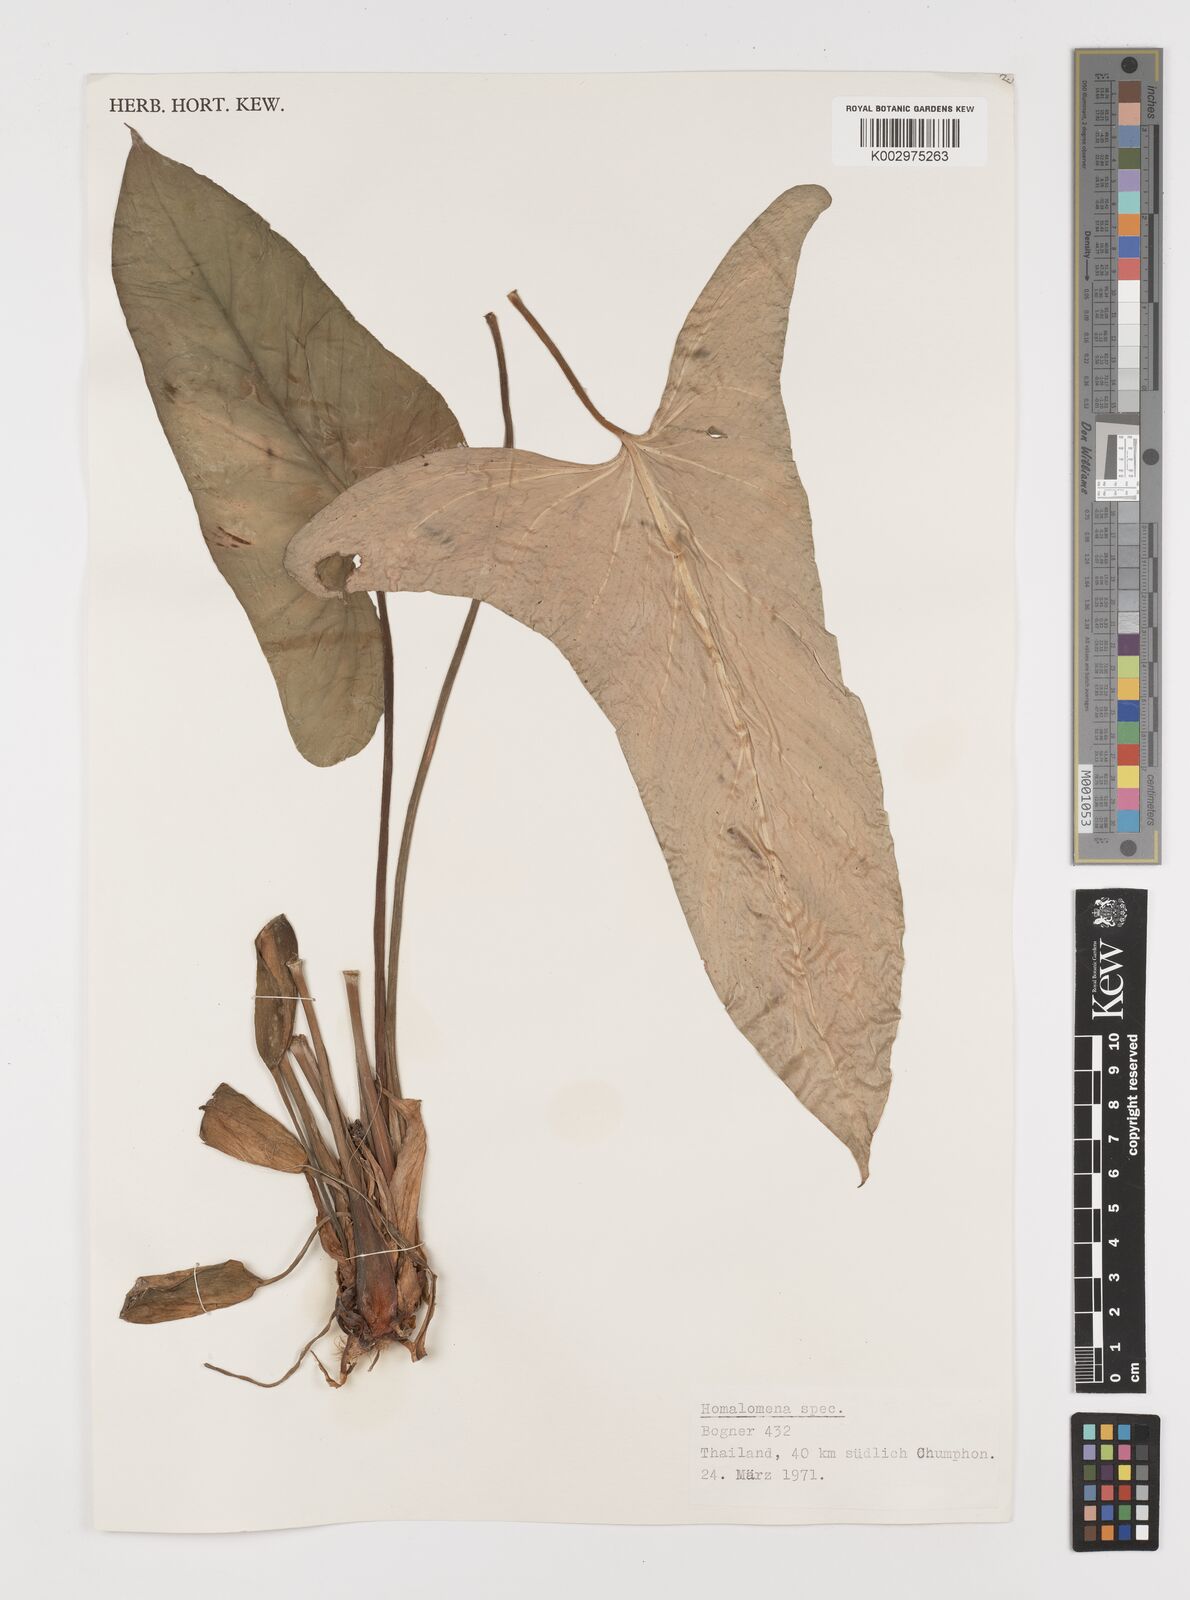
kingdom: Plantae
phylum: Tracheophyta
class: Liliopsida
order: Alismatales
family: Araceae
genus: Homalomena
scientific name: Homalomena
